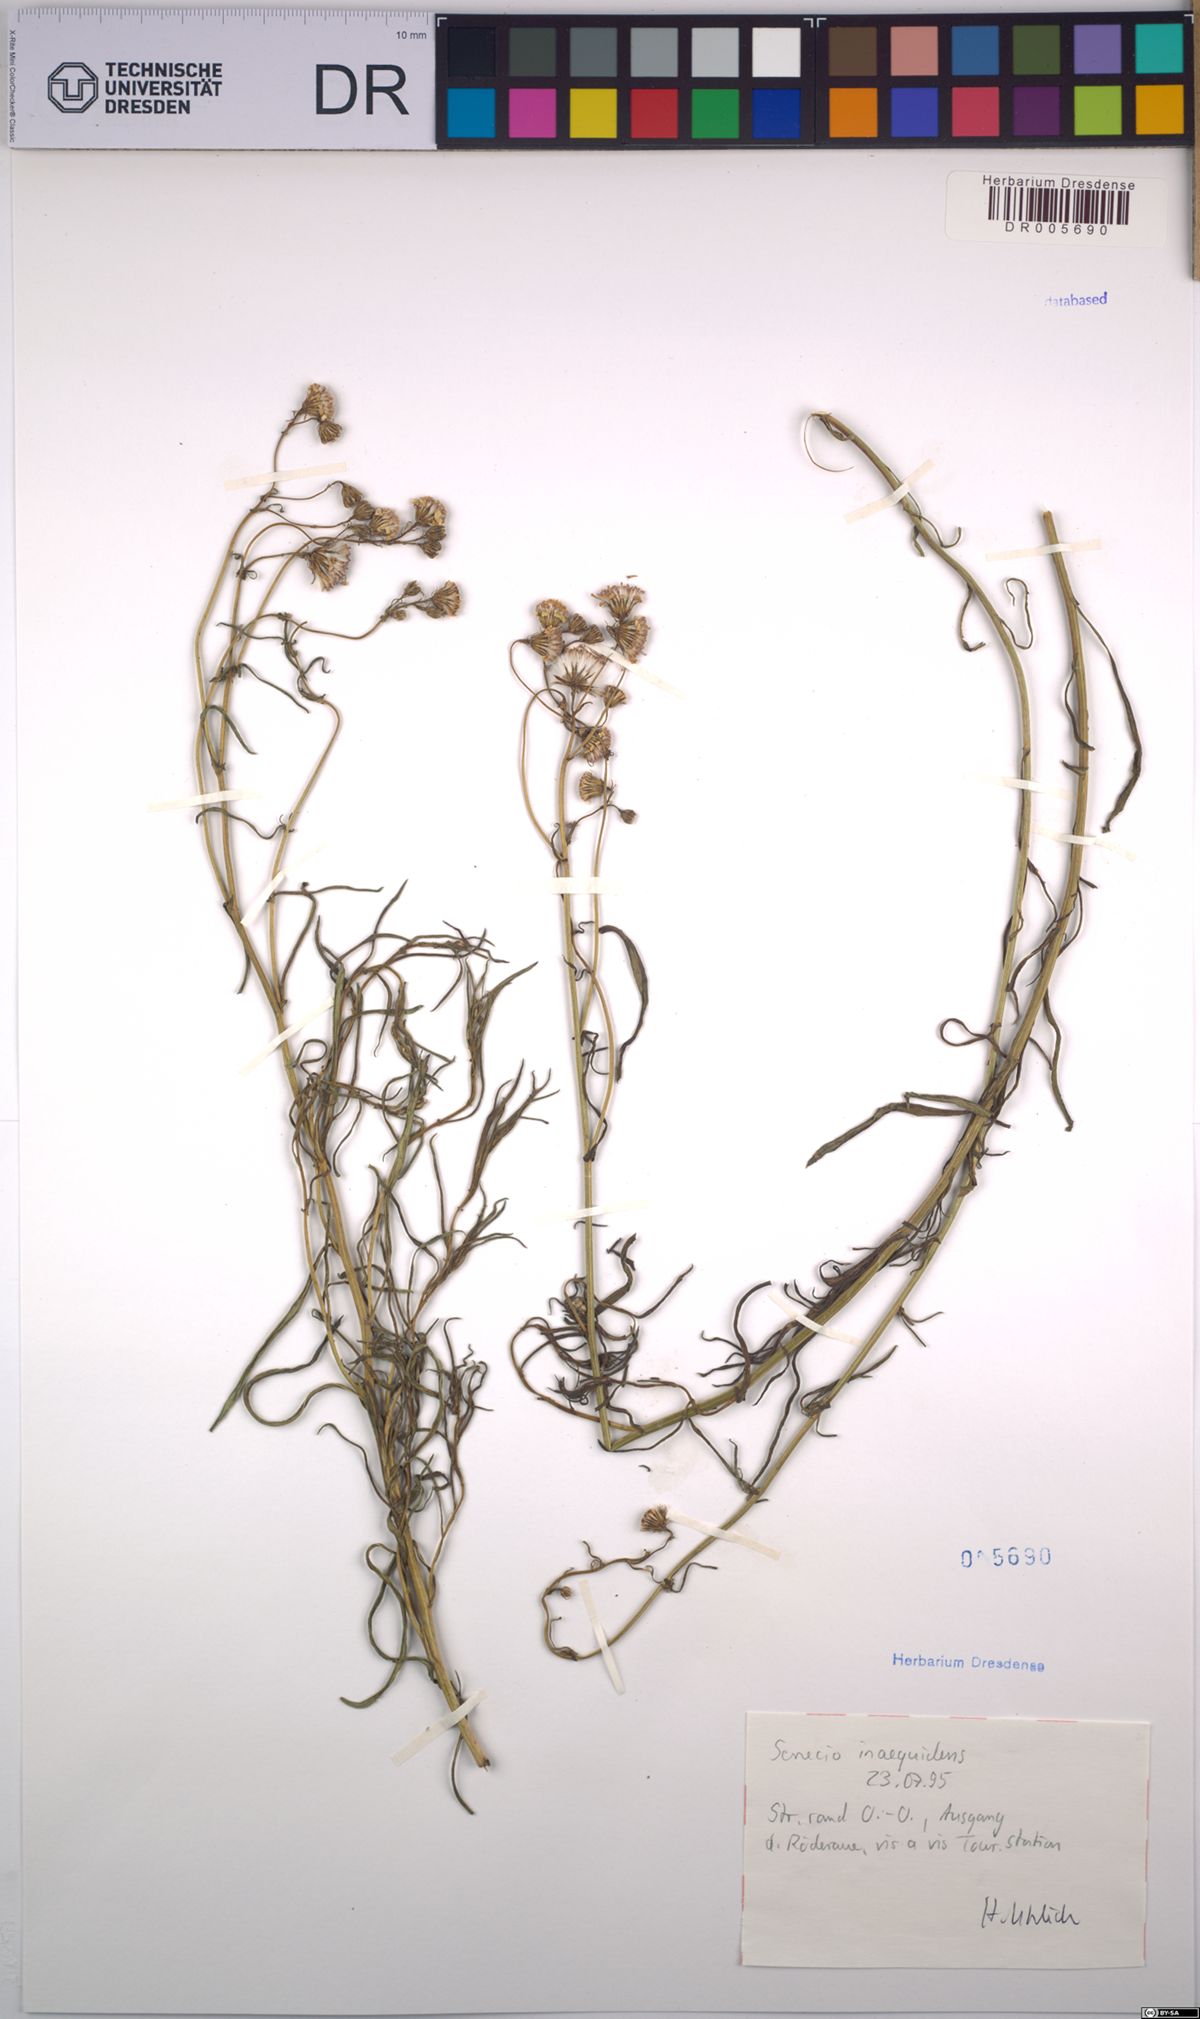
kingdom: Plantae
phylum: Tracheophyta
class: Magnoliopsida
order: Asterales
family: Asteraceae
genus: Senecio
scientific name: Senecio inaequidens
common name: Narrow-leaved ragwort
